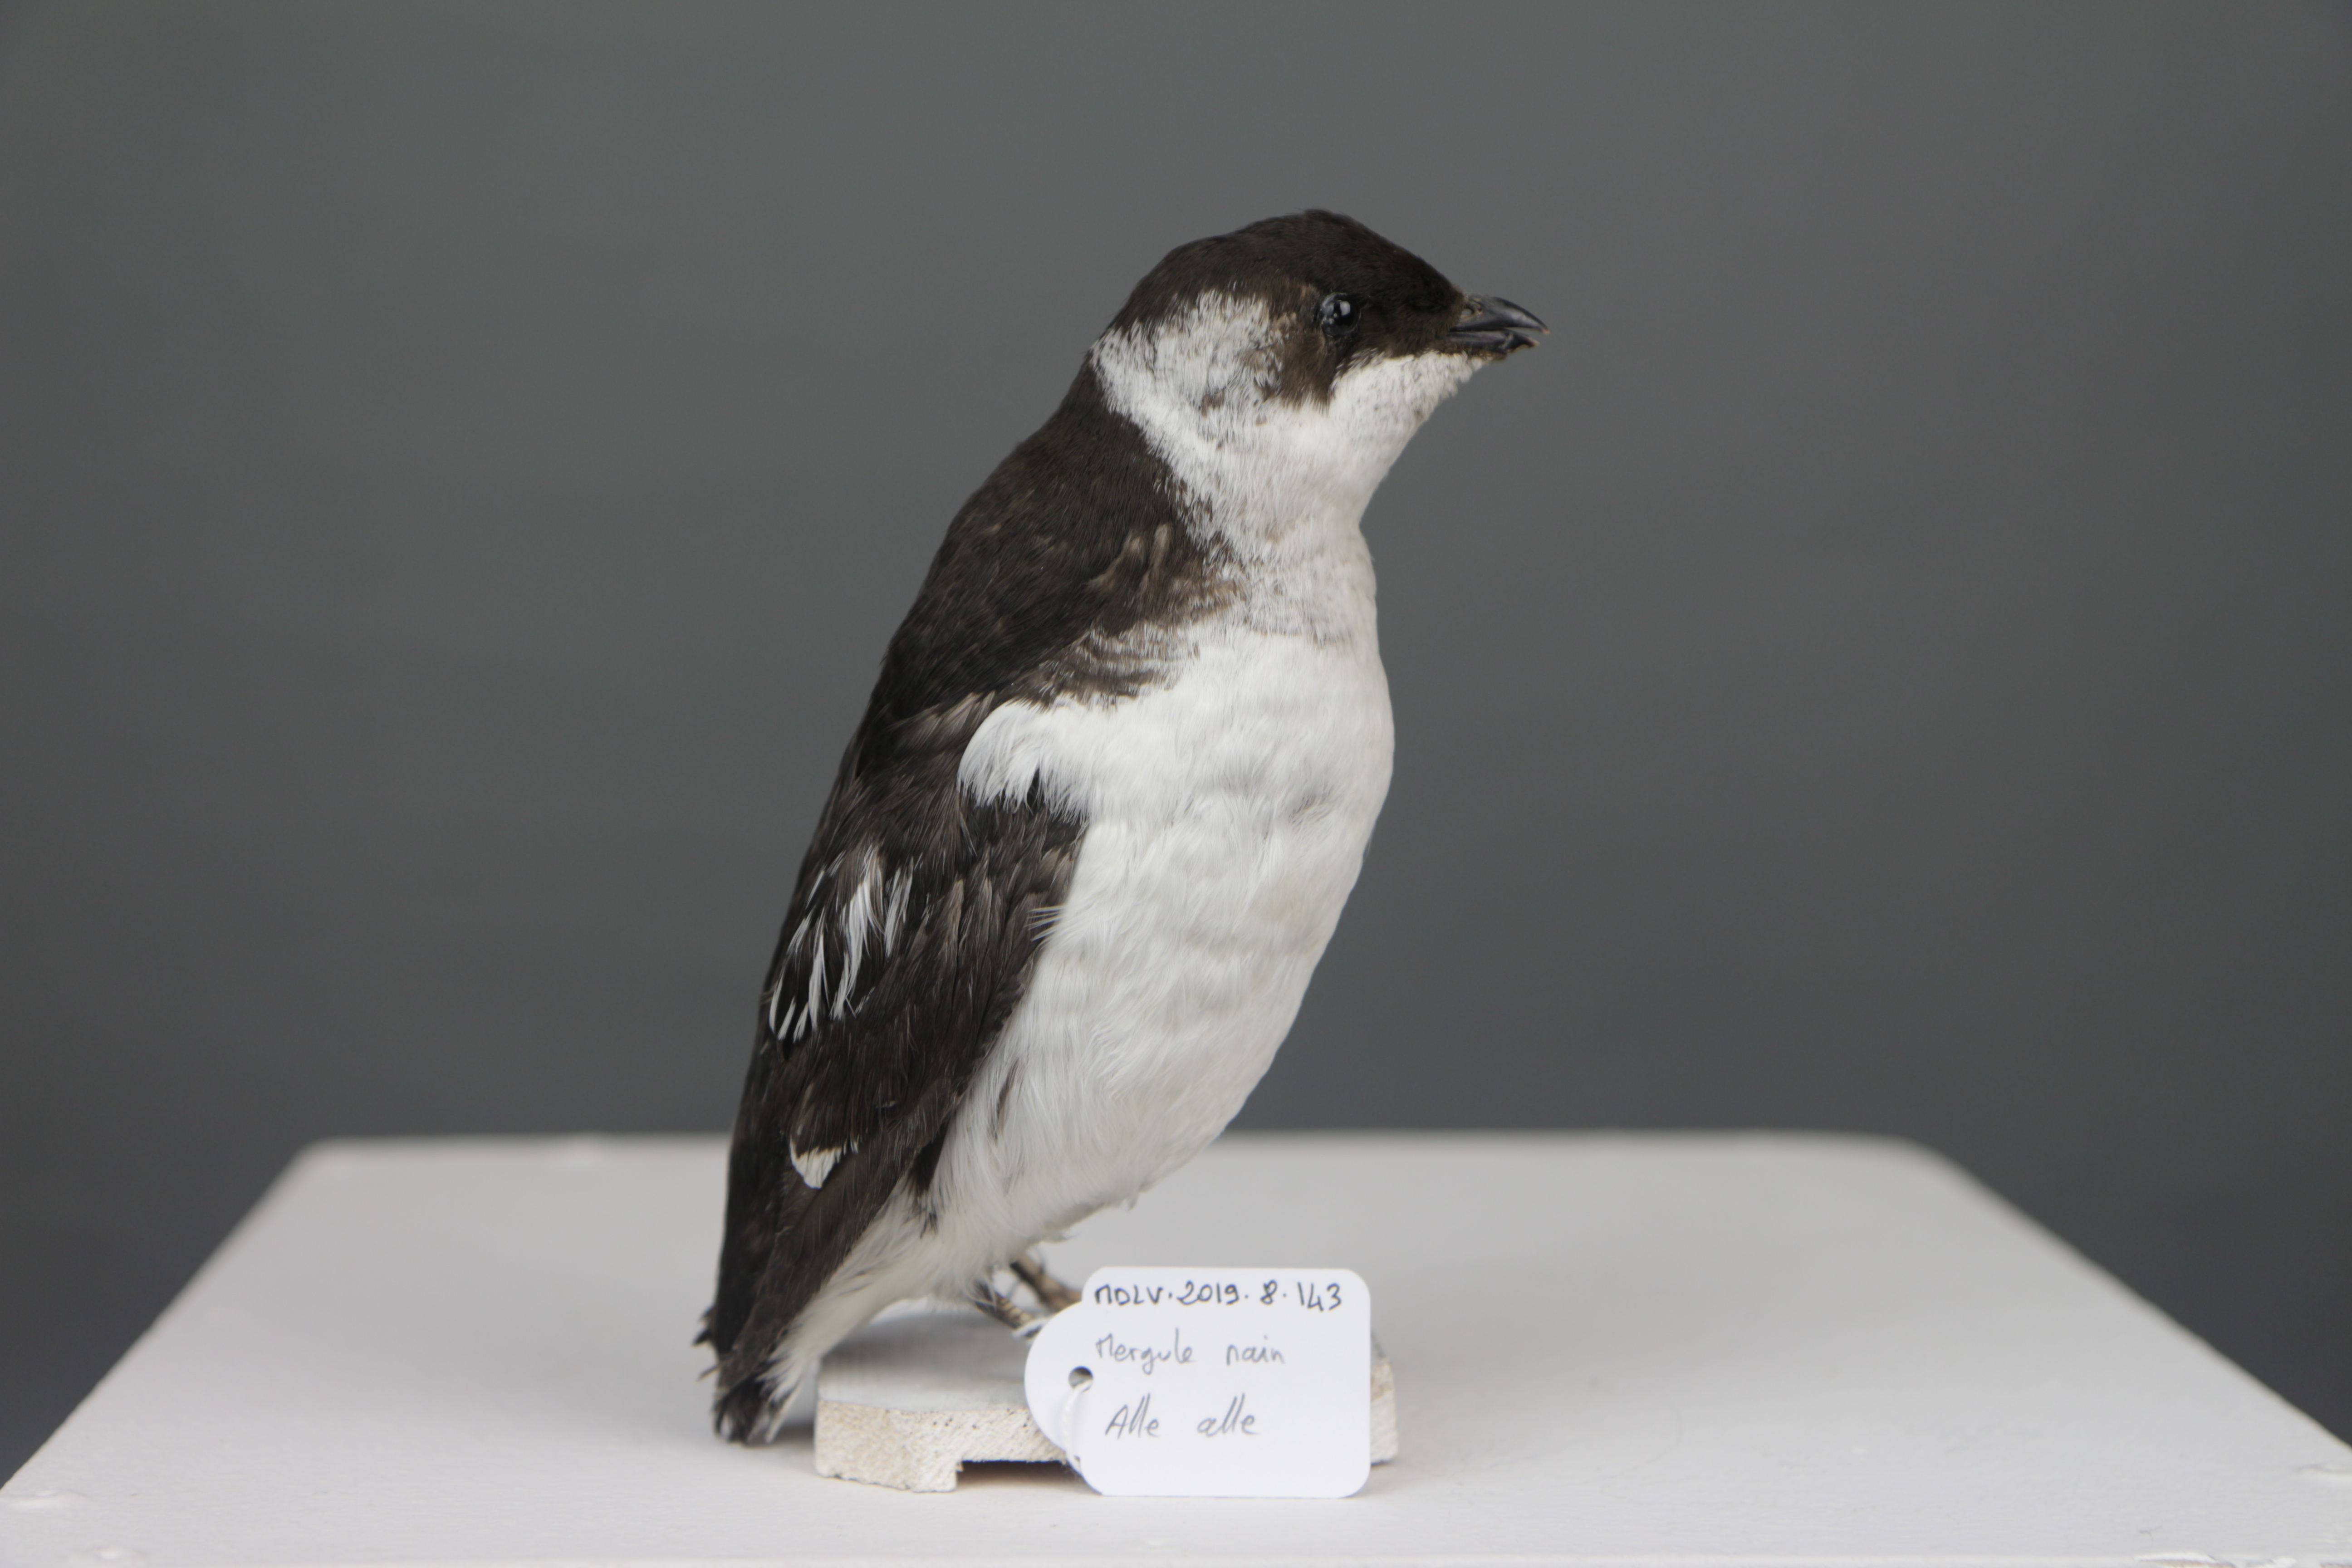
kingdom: Animalia
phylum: Chordata
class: Aves
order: Charadriiformes
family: Alcidae
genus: Alle
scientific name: Alle alle
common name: Little auk
